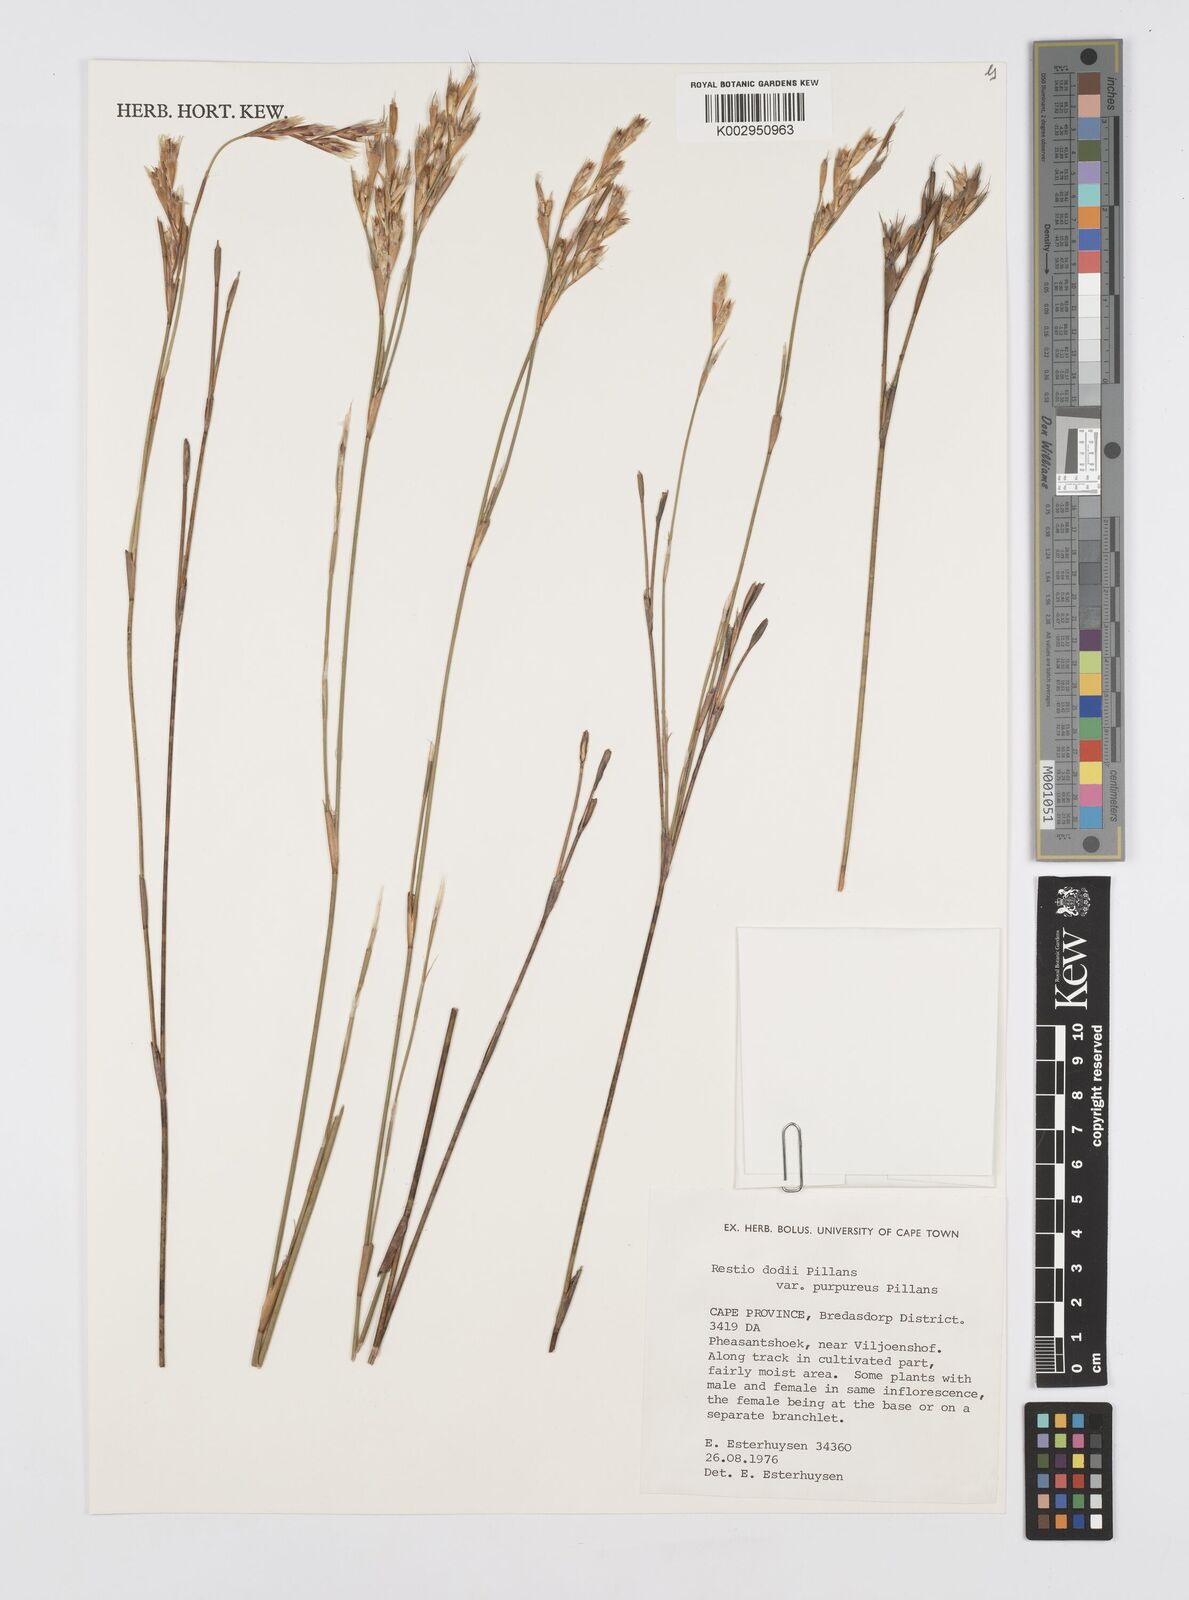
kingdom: Plantae
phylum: Tracheophyta
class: Liliopsida
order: Poales
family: Restionaceae
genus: Restio
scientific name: Restio dodii
